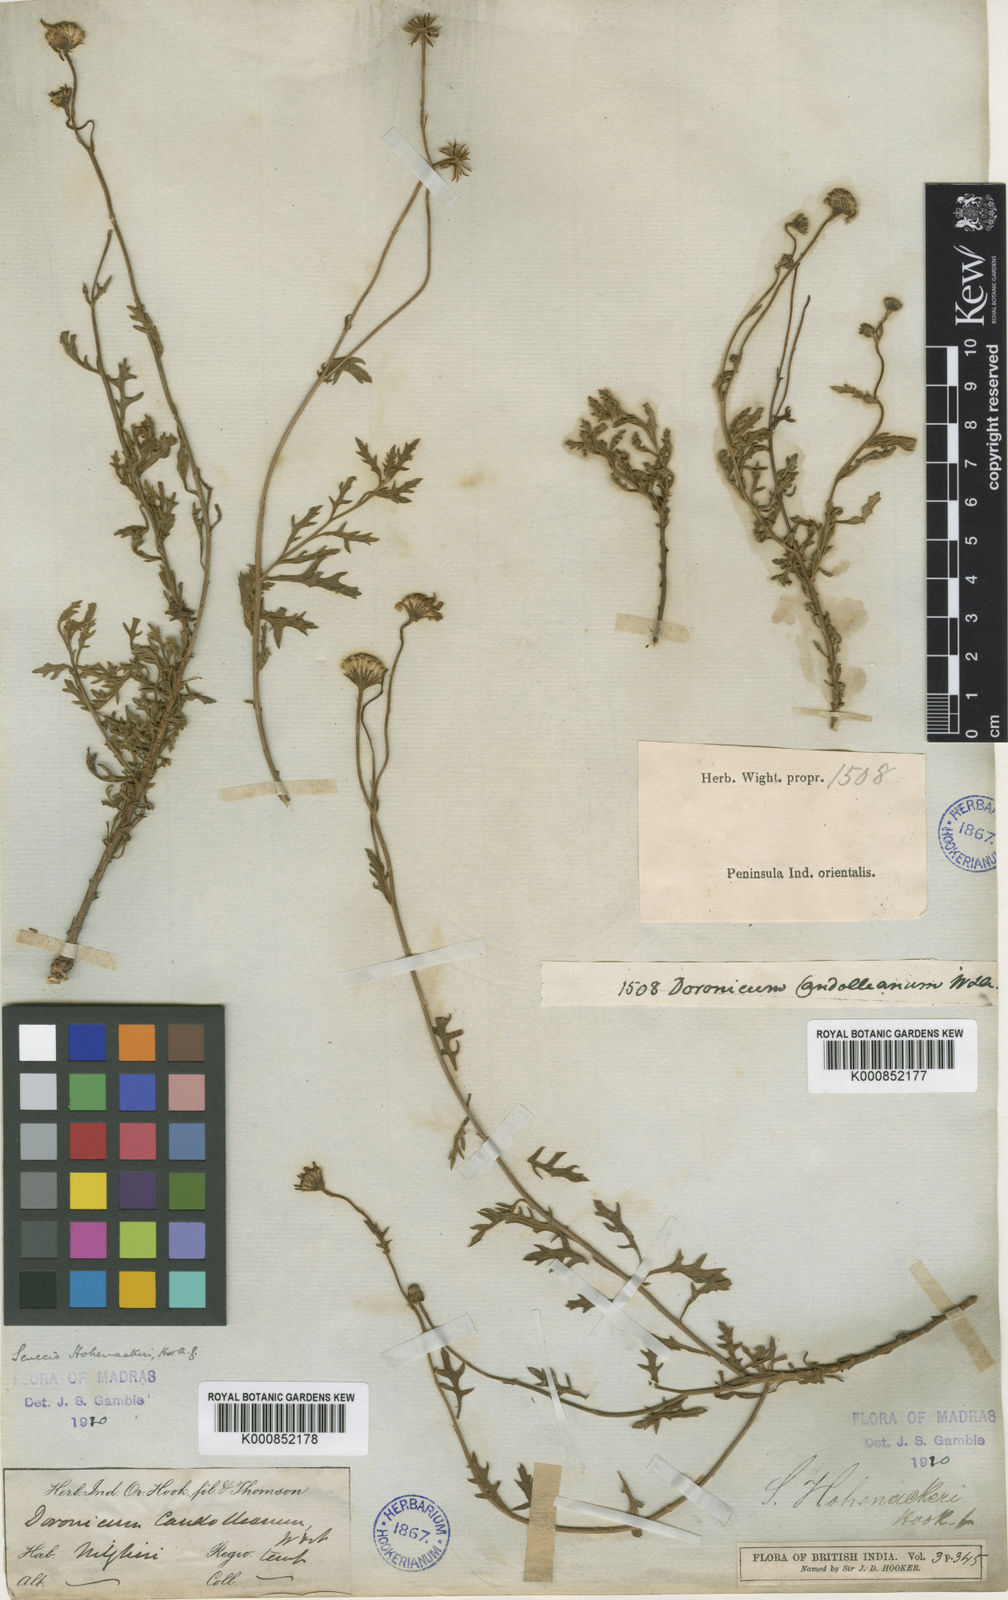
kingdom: Plantae
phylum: Tracheophyta
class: Magnoliopsida
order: Asterales
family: Asteraceae
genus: Senecio
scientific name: Senecio madrasensis
